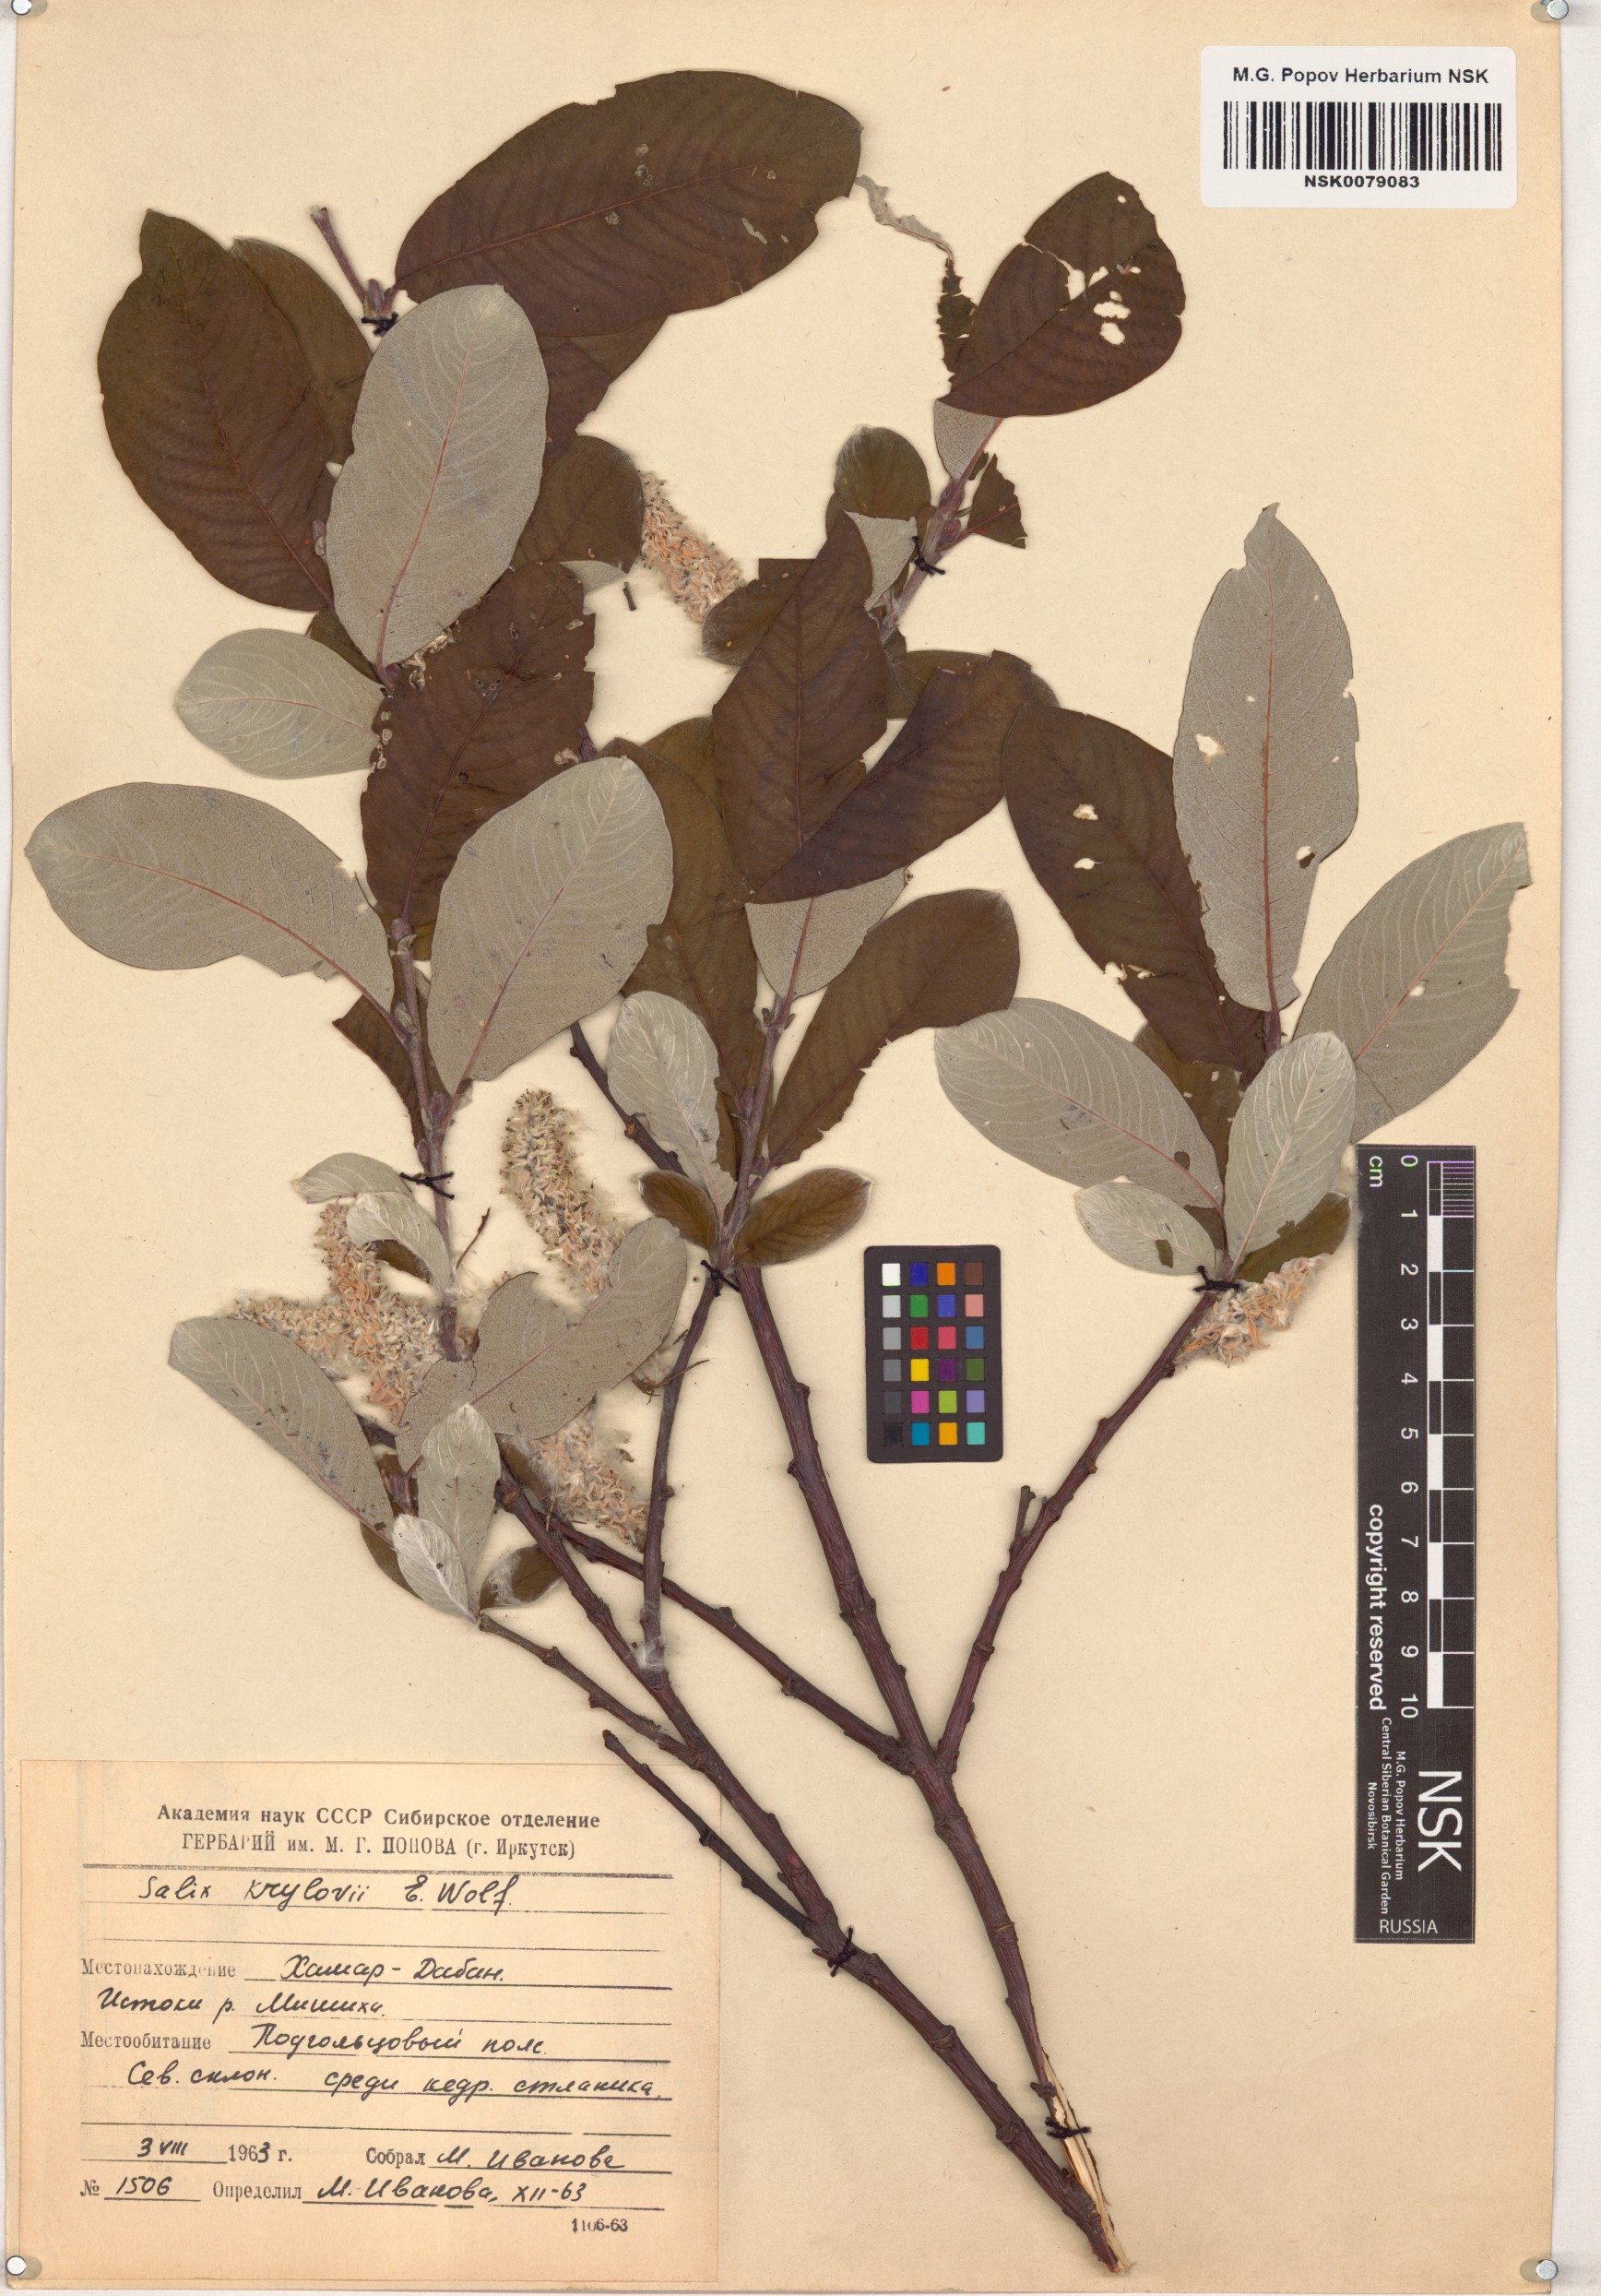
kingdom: Plantae
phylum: Tracheophyta
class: Magnoliopsida
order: Malpighiales
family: Salicaceae
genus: Salix
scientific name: Salix krylovii
